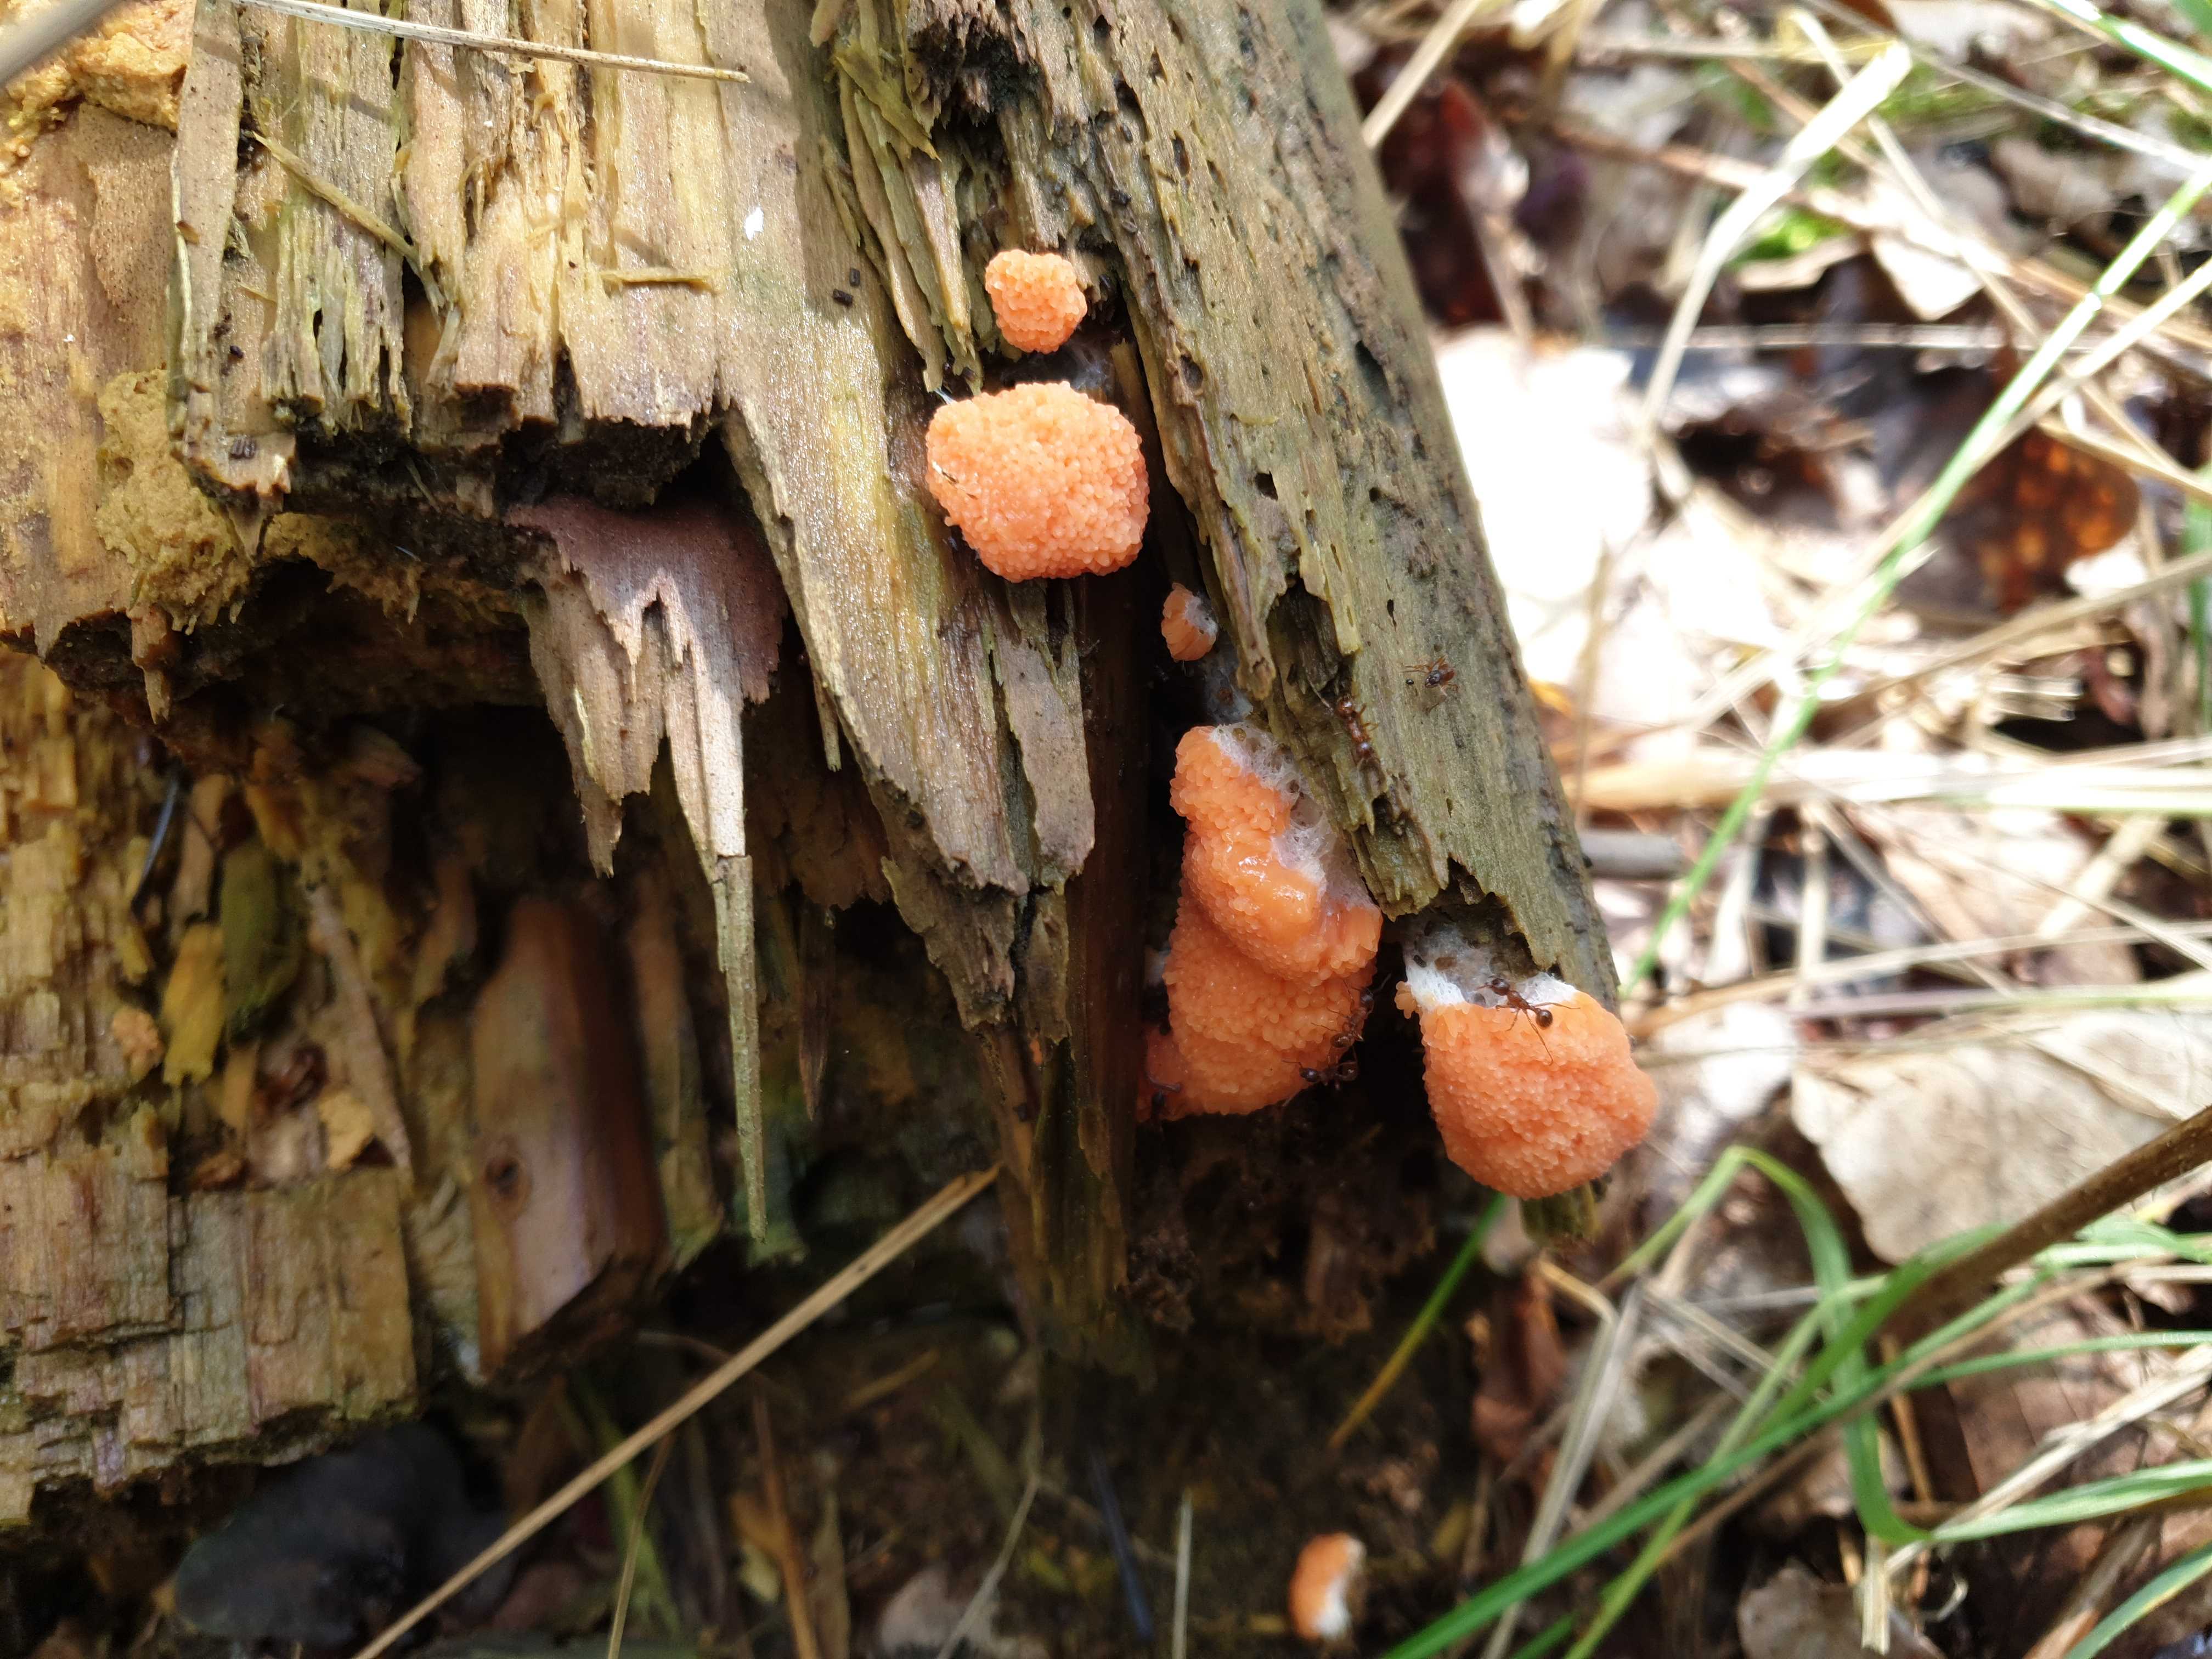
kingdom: Protozoa
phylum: Mycetozoa
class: Myxomycetes
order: Cribrariales
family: Tubiferaceae
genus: Tubifera
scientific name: Tubifera ferruginosa
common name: kanel-støvrør
